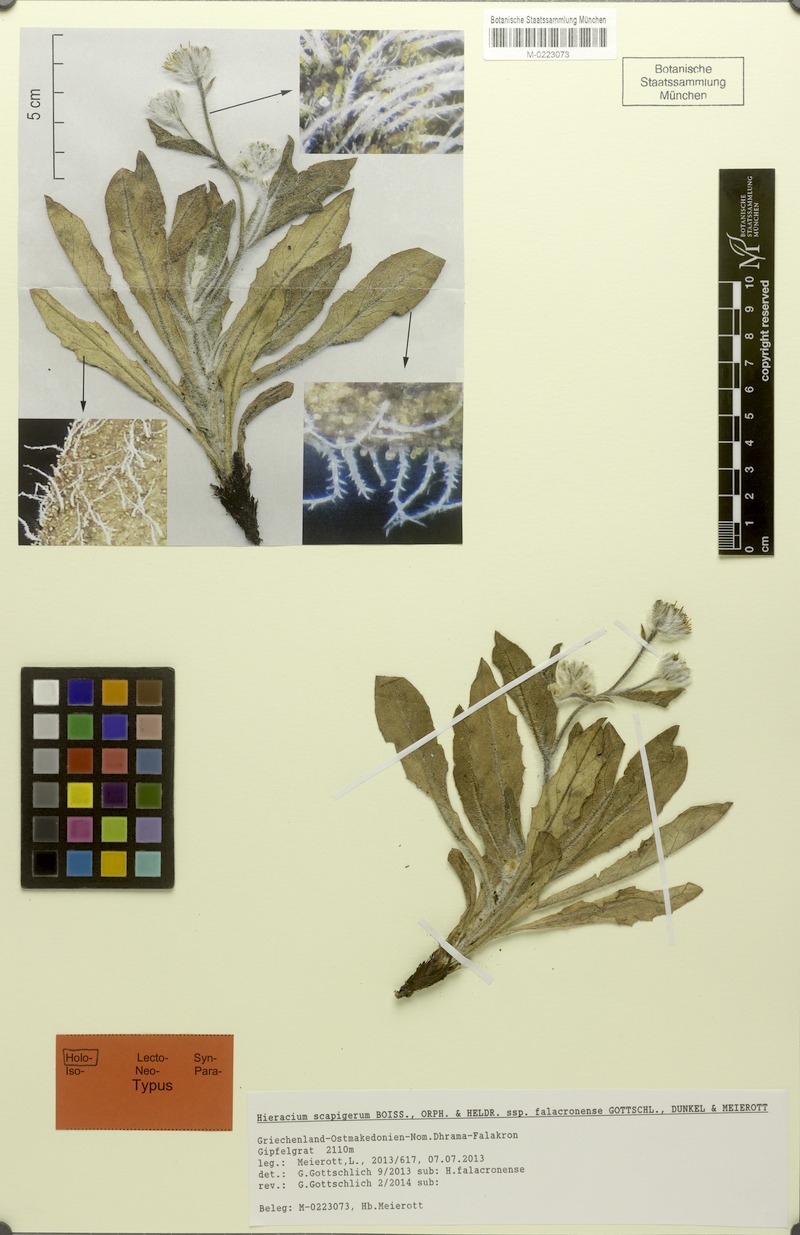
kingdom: Plantae
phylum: Tracheophyta
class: Magnoliopsida
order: Asterales
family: Asteraceae
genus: Hieracium
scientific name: Hieracium scapigerum
